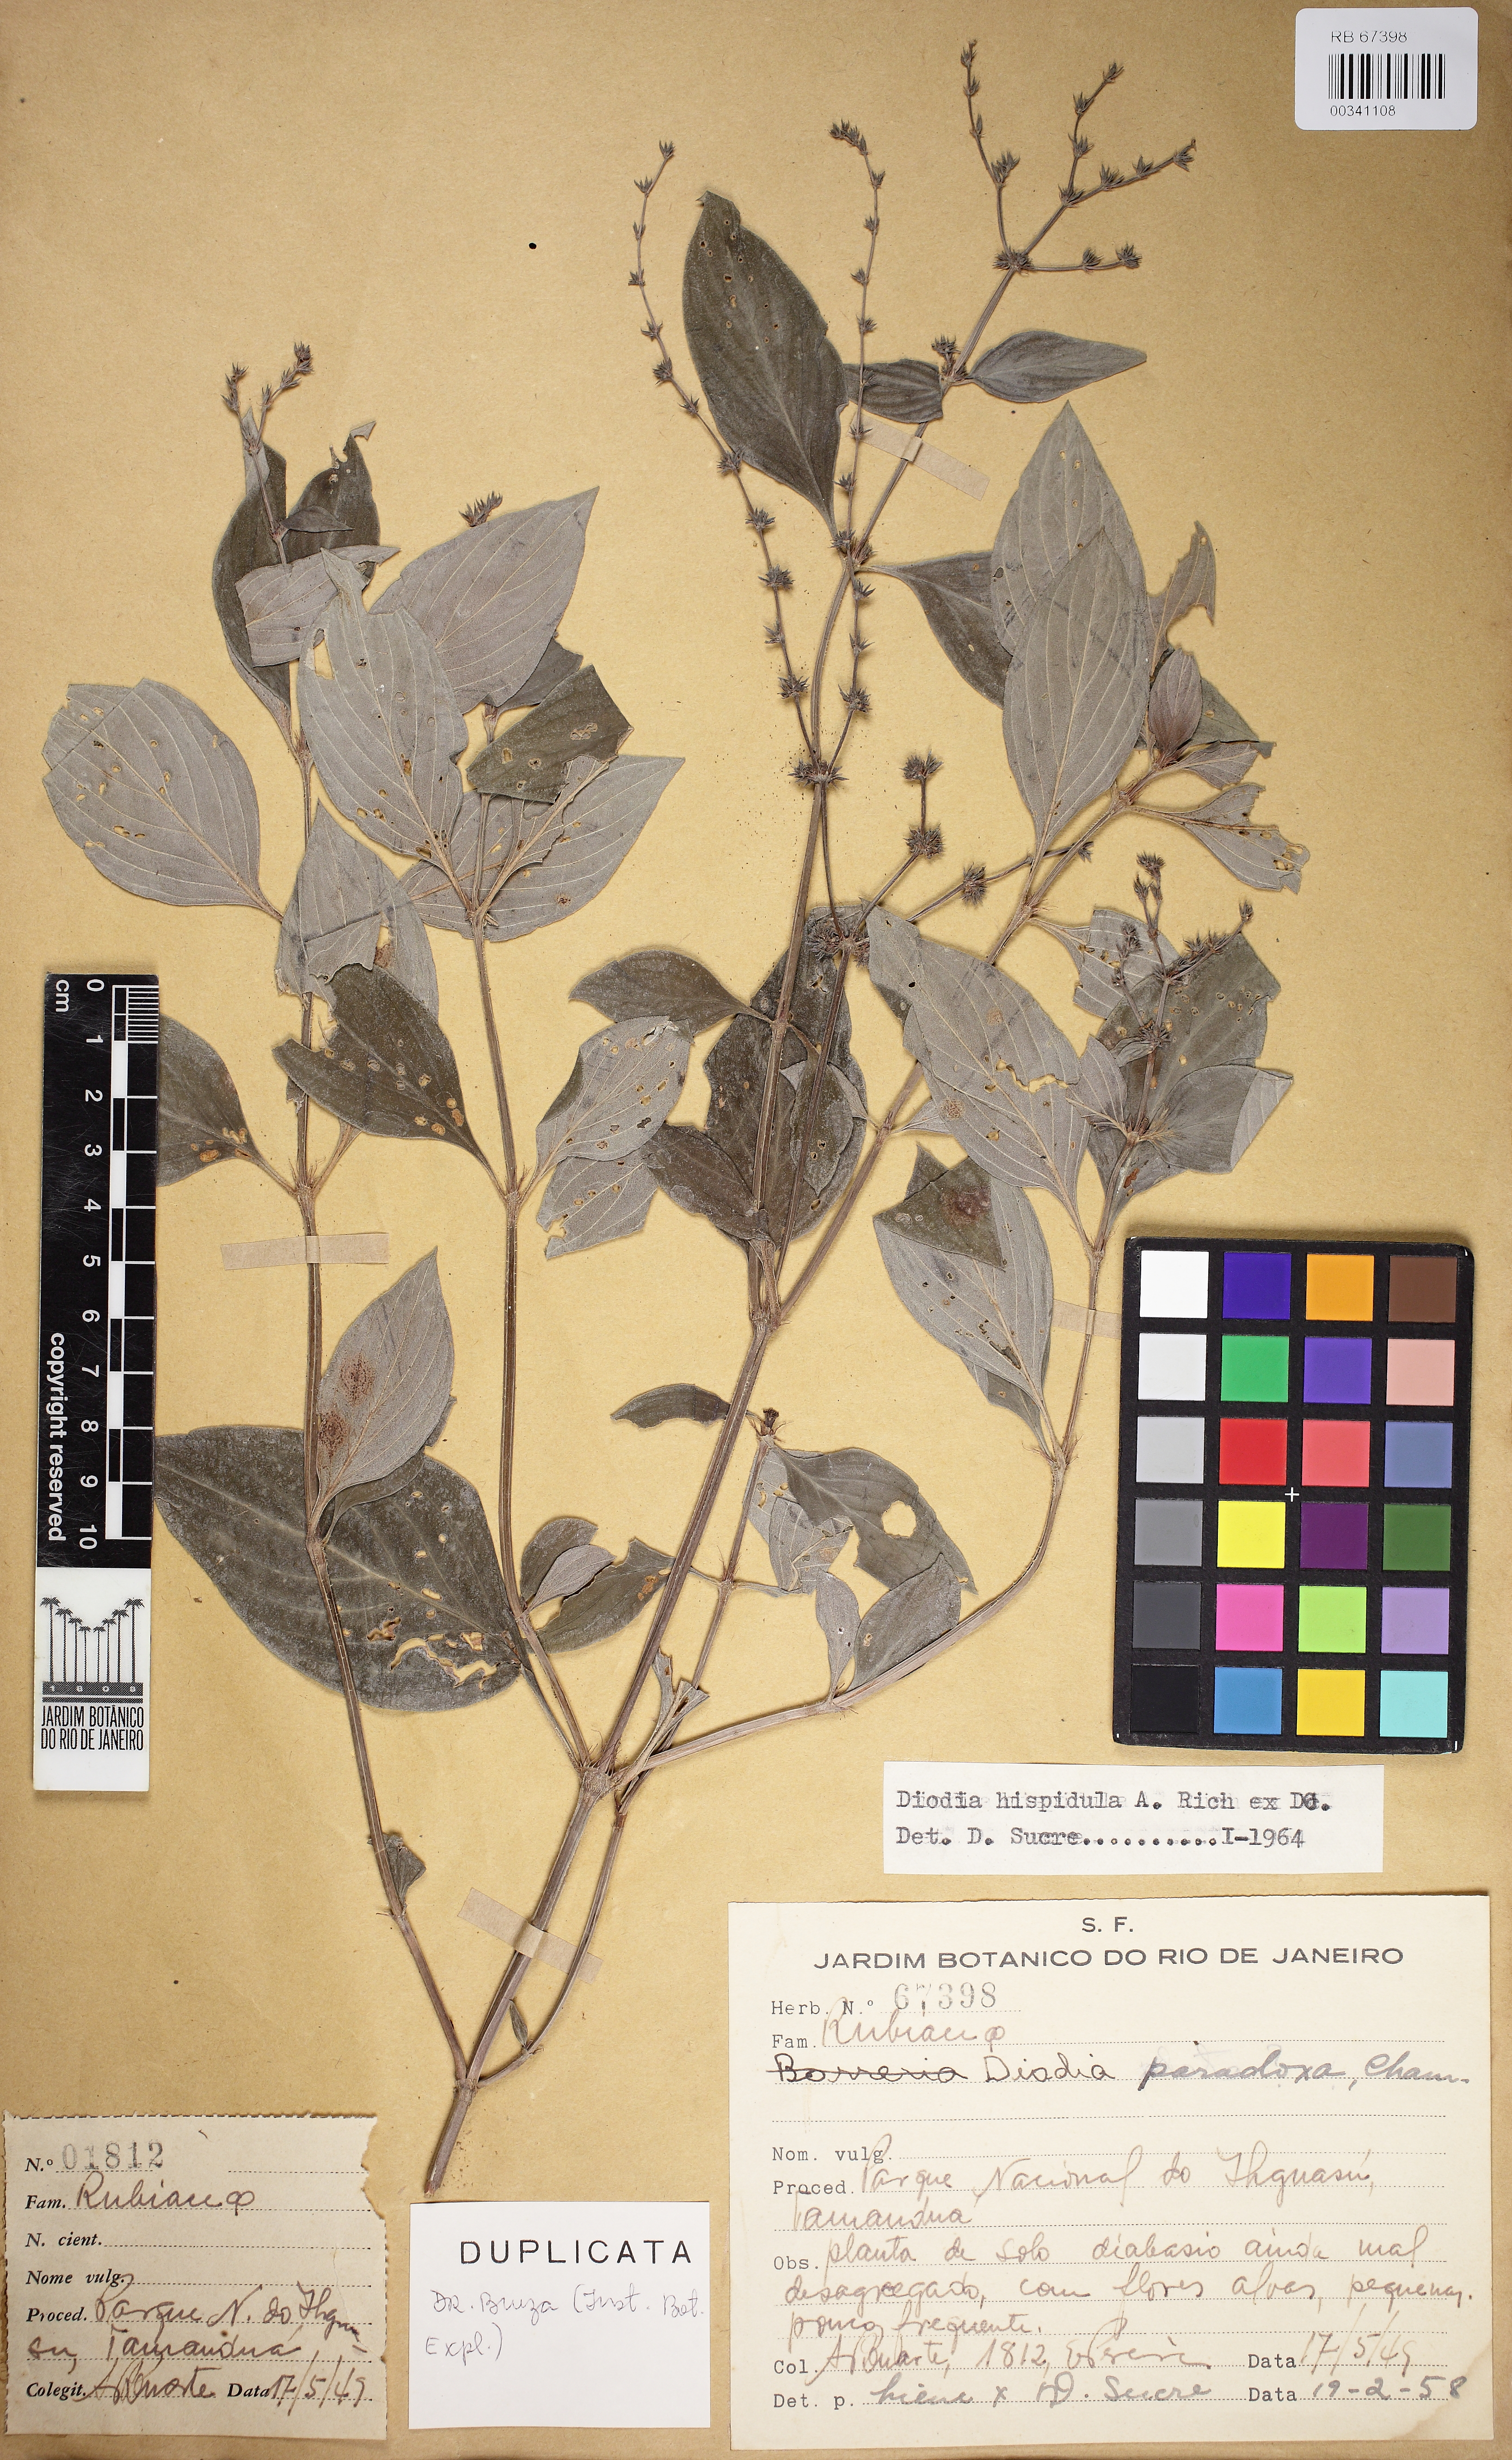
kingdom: Plantae
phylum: Tracheophyta
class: Magnoliopsida
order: Gentianales
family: Rubiaceae
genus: Galianthe
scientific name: Galianthe hispidula
